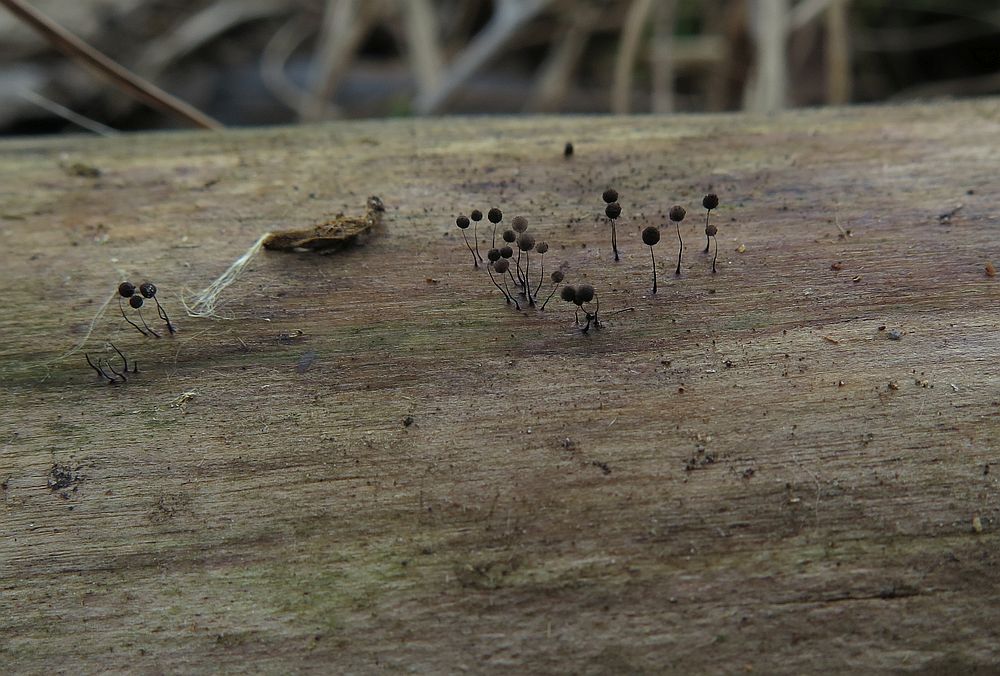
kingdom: Protozoa
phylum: Mycetozoa
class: Myxomycetes
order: Stemonitidales
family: Stemonitidaceae
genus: Comatricha
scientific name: Comatricha nigra
